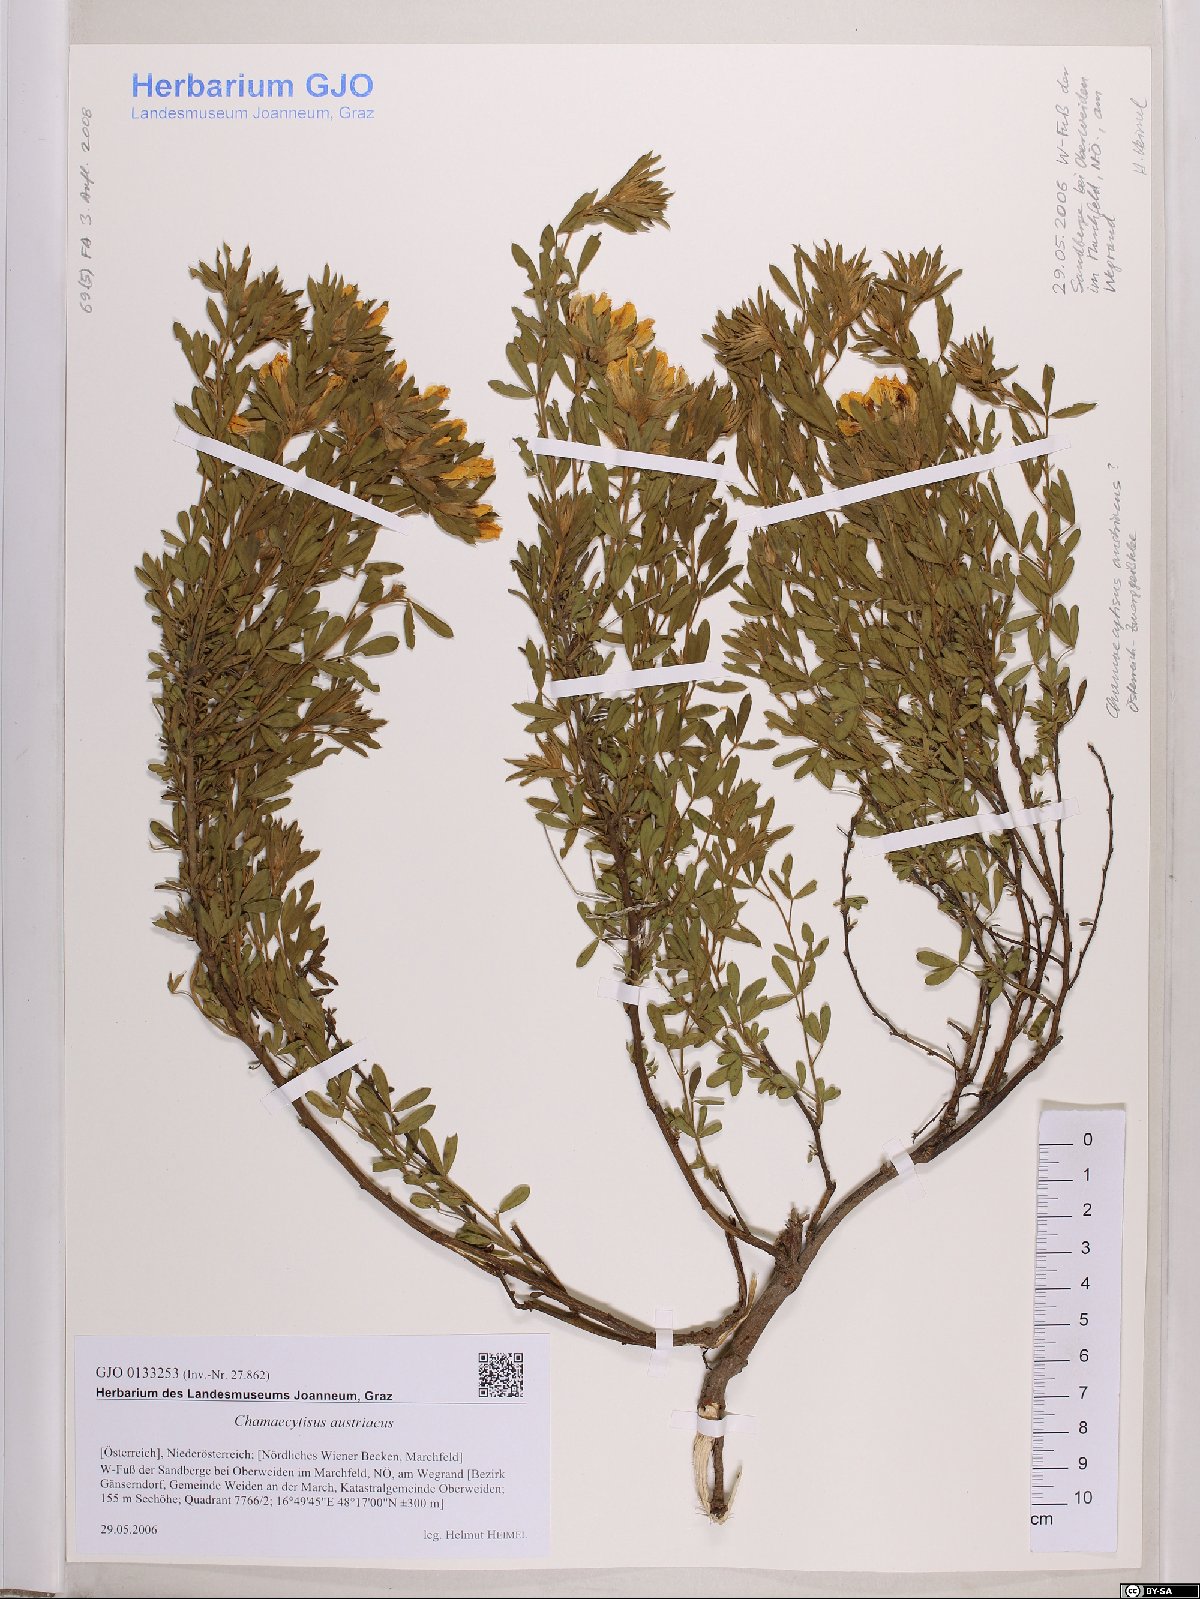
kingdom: Plantae
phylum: Tracheophyta
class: Magnoliopsida
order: Fabales
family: Fabaceae
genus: Chamaecytisus
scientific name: Chamaecytisus austriacus
